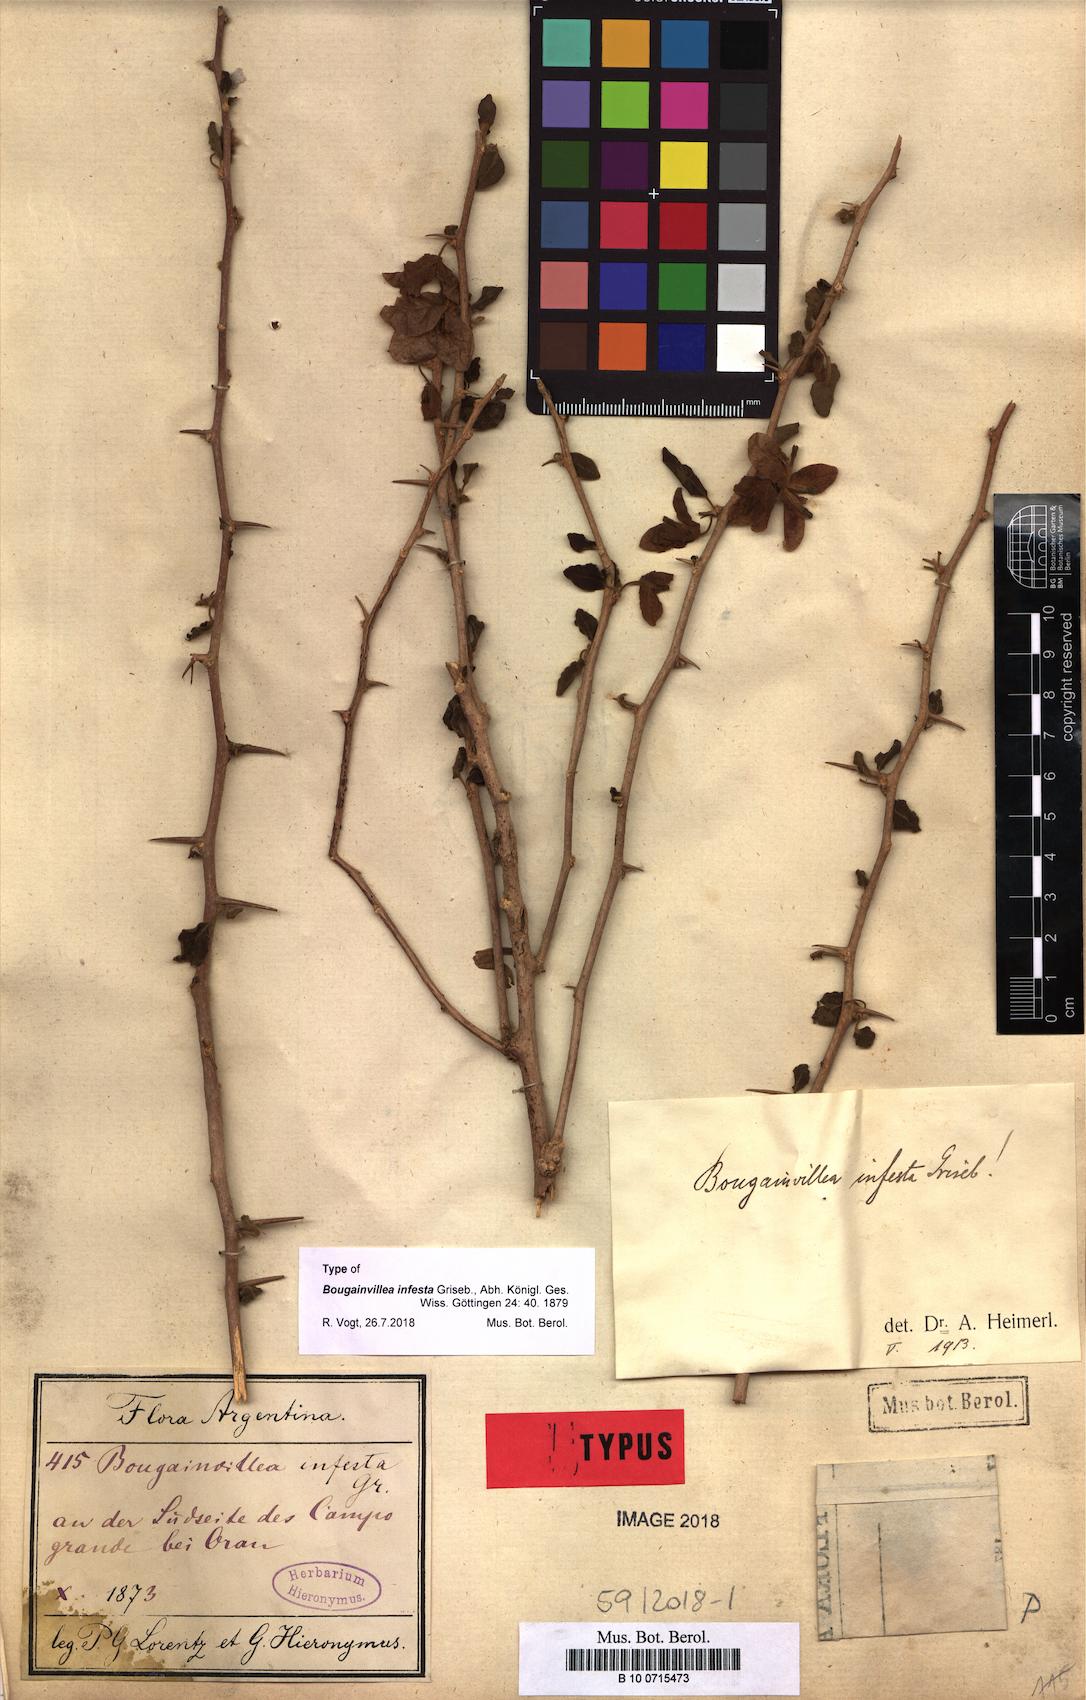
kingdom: Plantae
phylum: Tracheophyta
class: Magnoliopsida
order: Caryophyllales
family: Nyctaginaceae
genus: Bougainvillea
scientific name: Bougainvillea infesta
